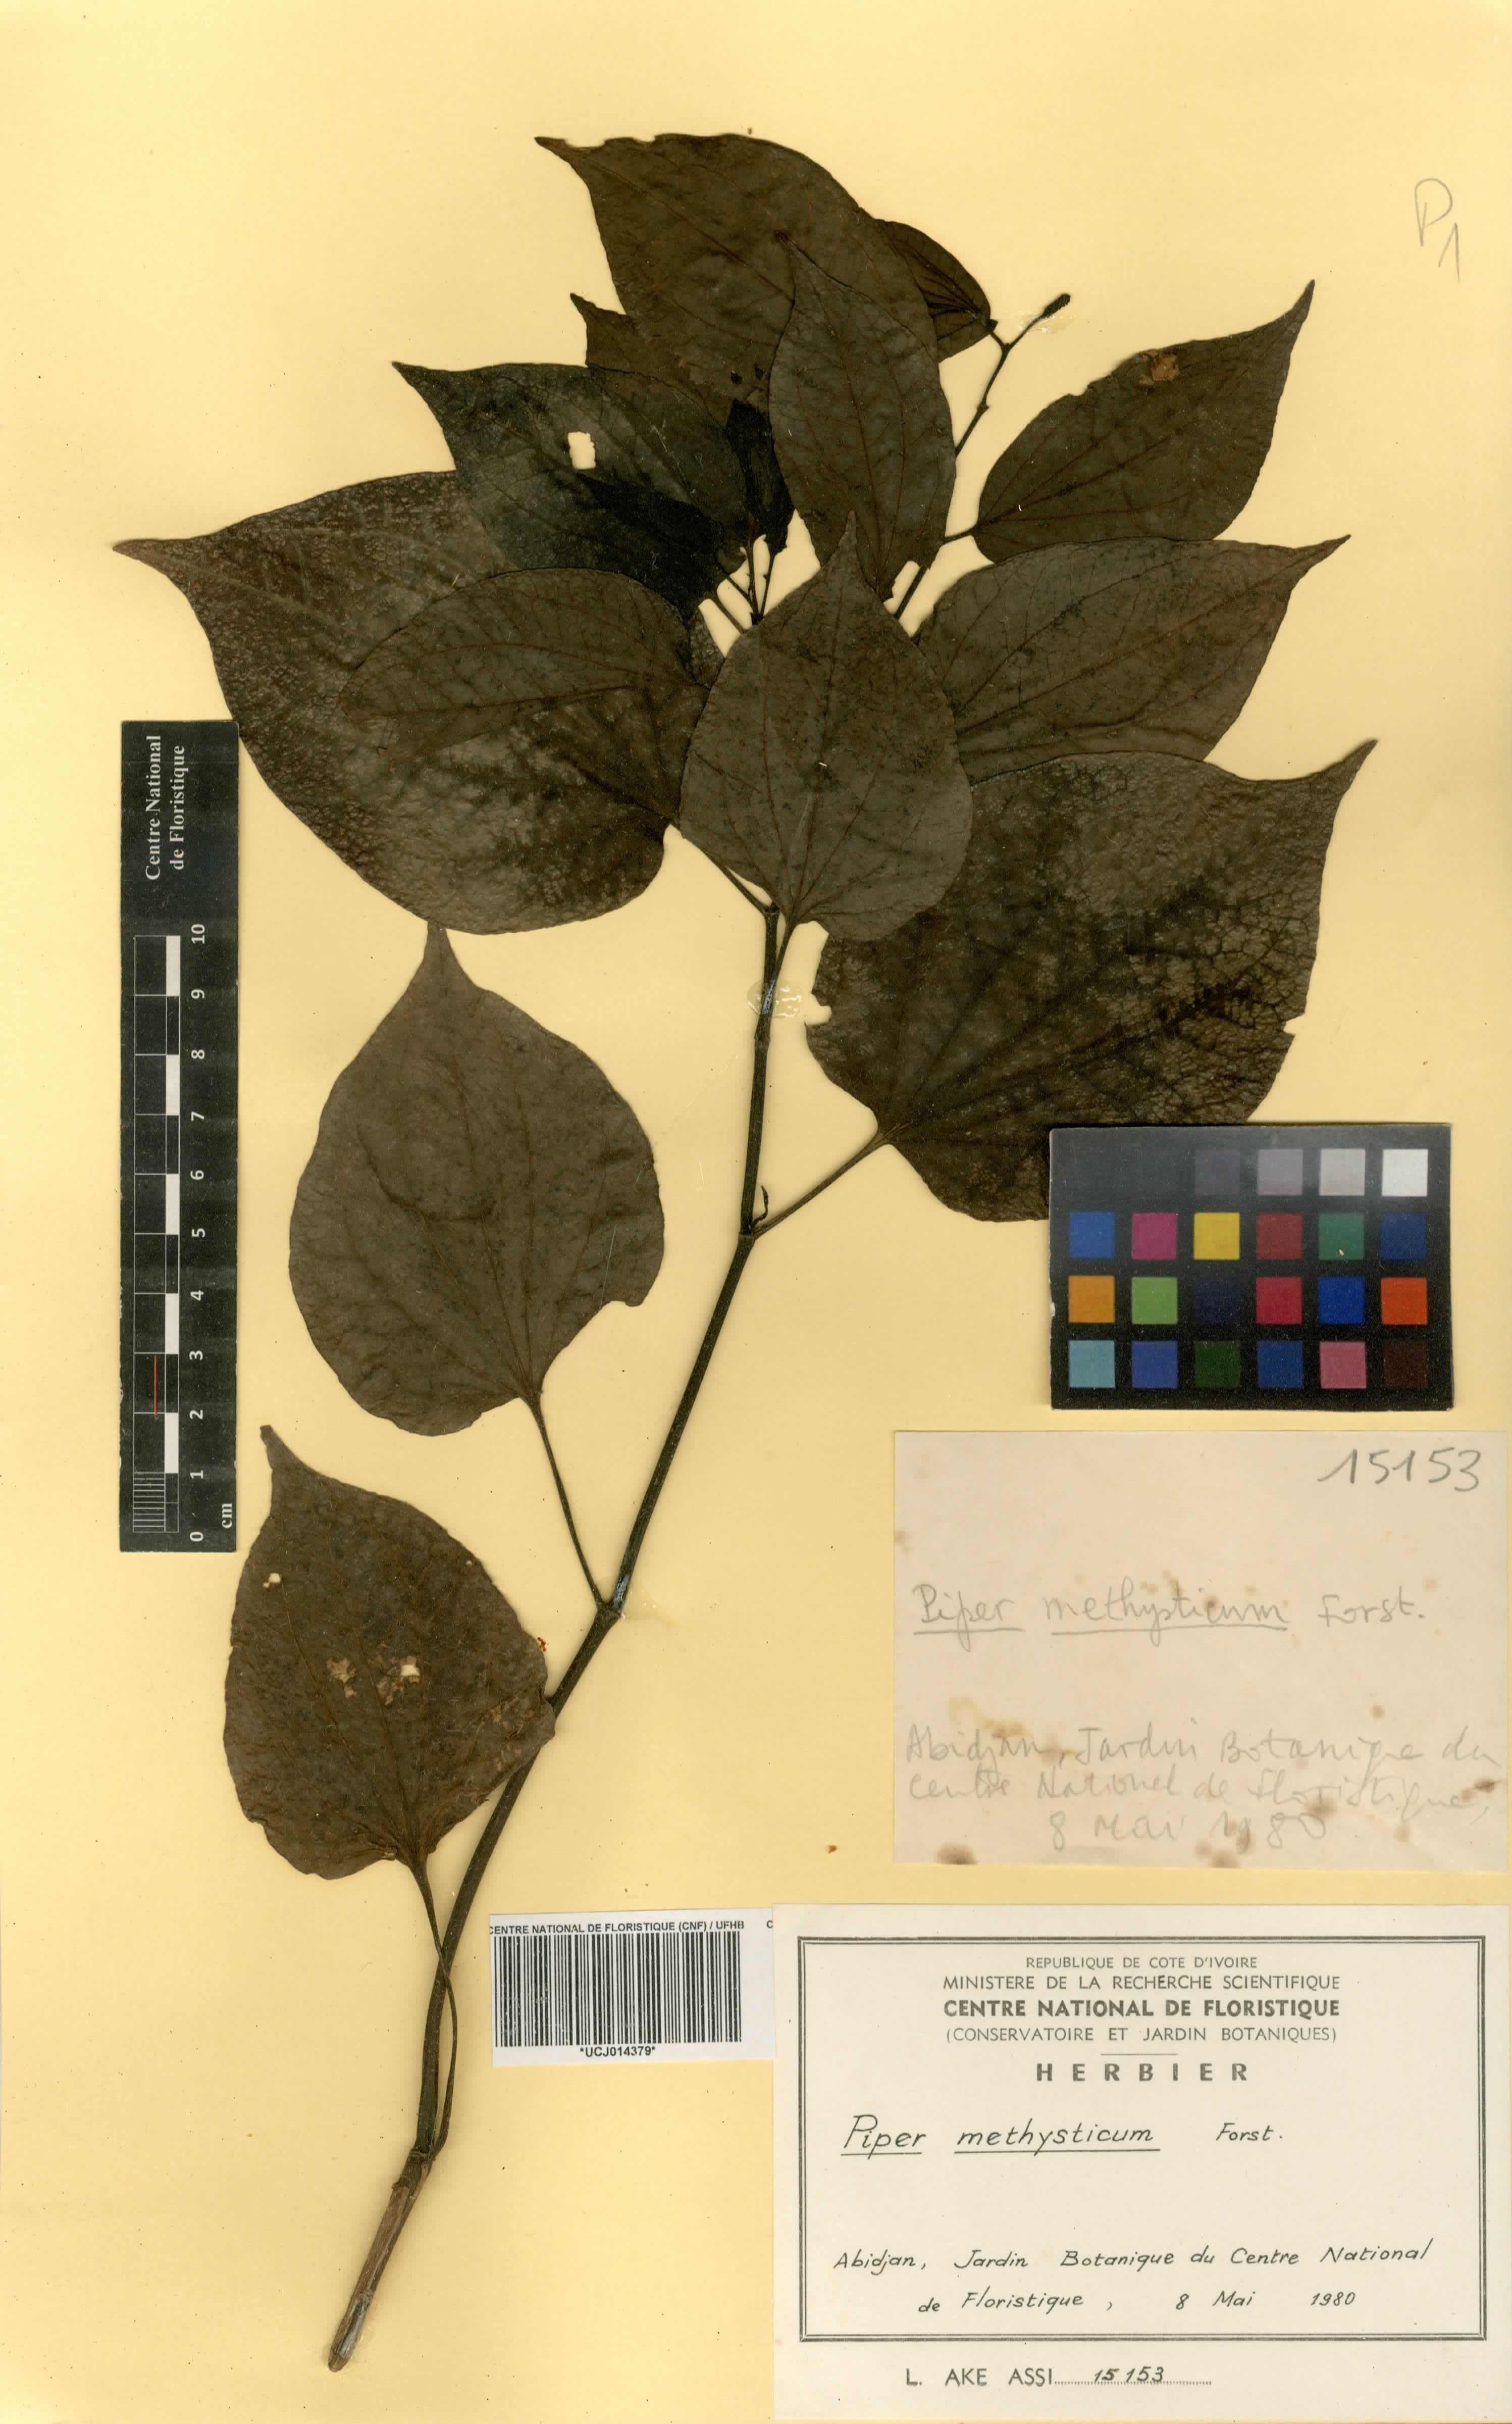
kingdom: Plantae
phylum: Tracheophyta
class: Magnoliopsida
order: Piperales
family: Piperaceae
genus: Macropiper
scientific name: Macropiper methysticum
